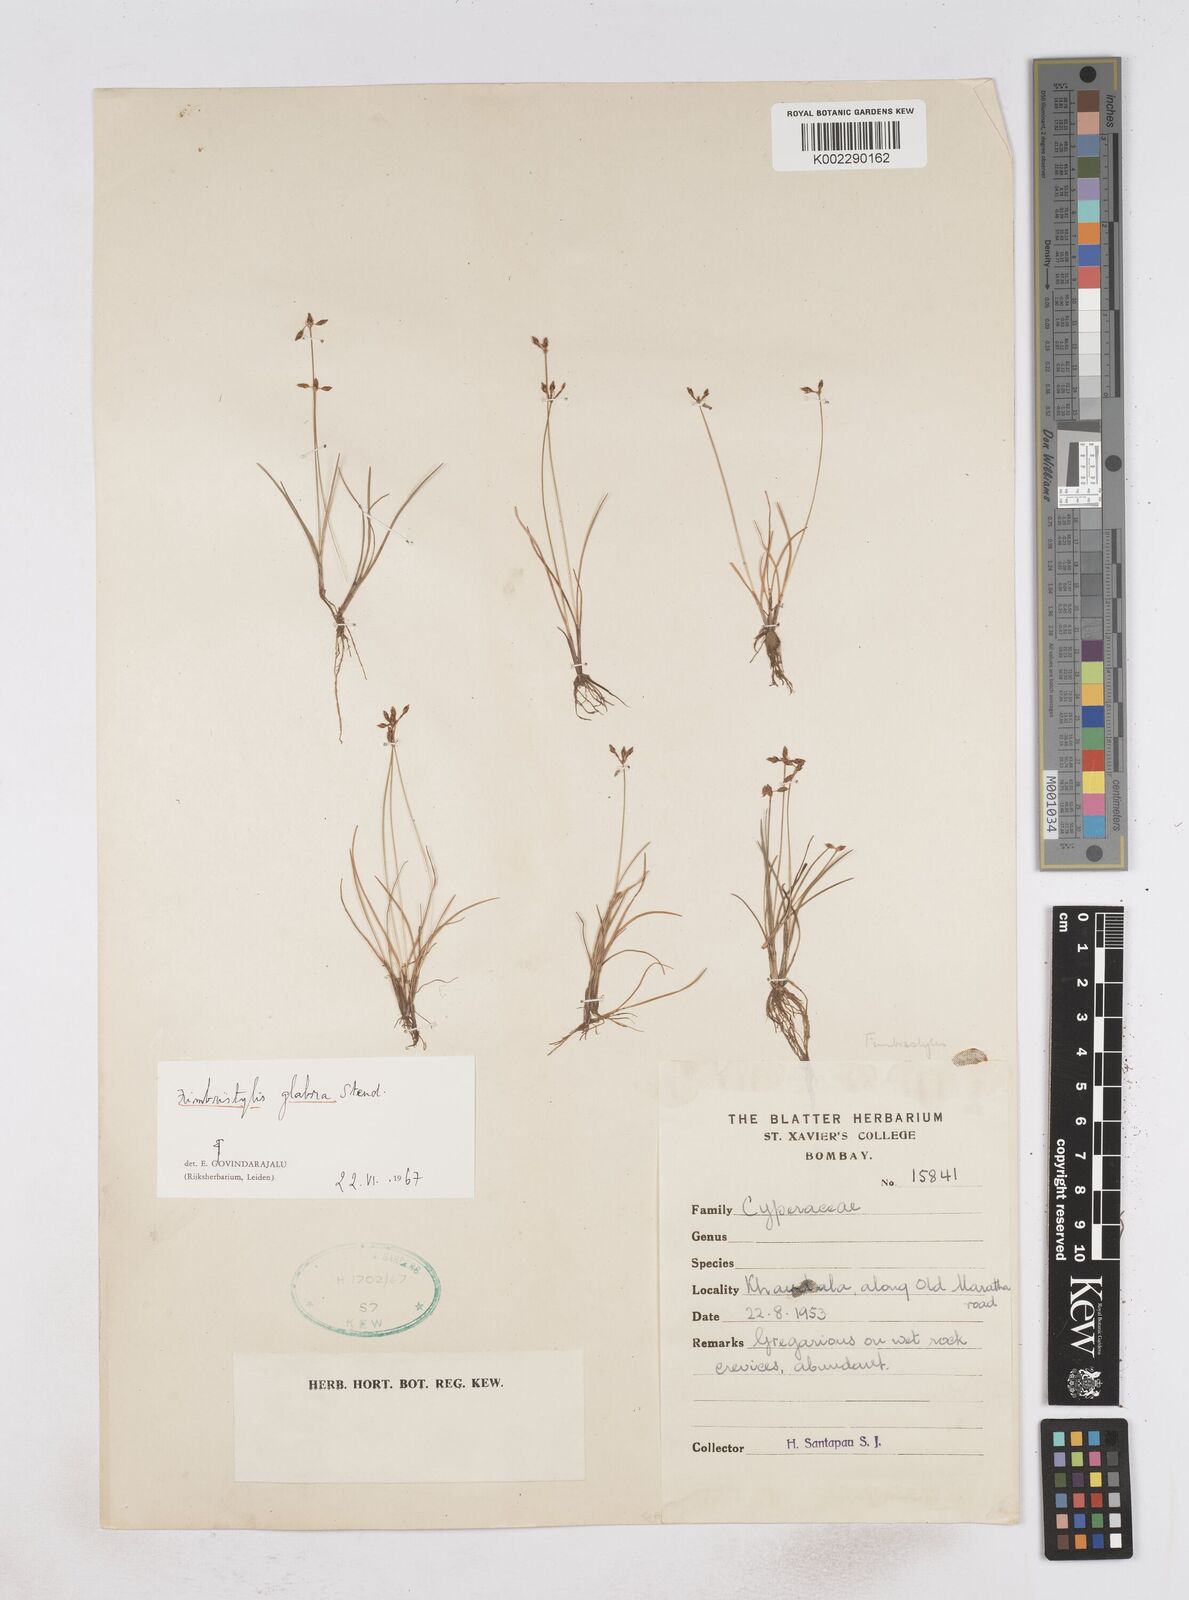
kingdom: Plantae
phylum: Tracheophyta
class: Liliopsida
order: Poales
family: Cyperaceae
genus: Fimbristylis
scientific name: Fimbristylis tenera
